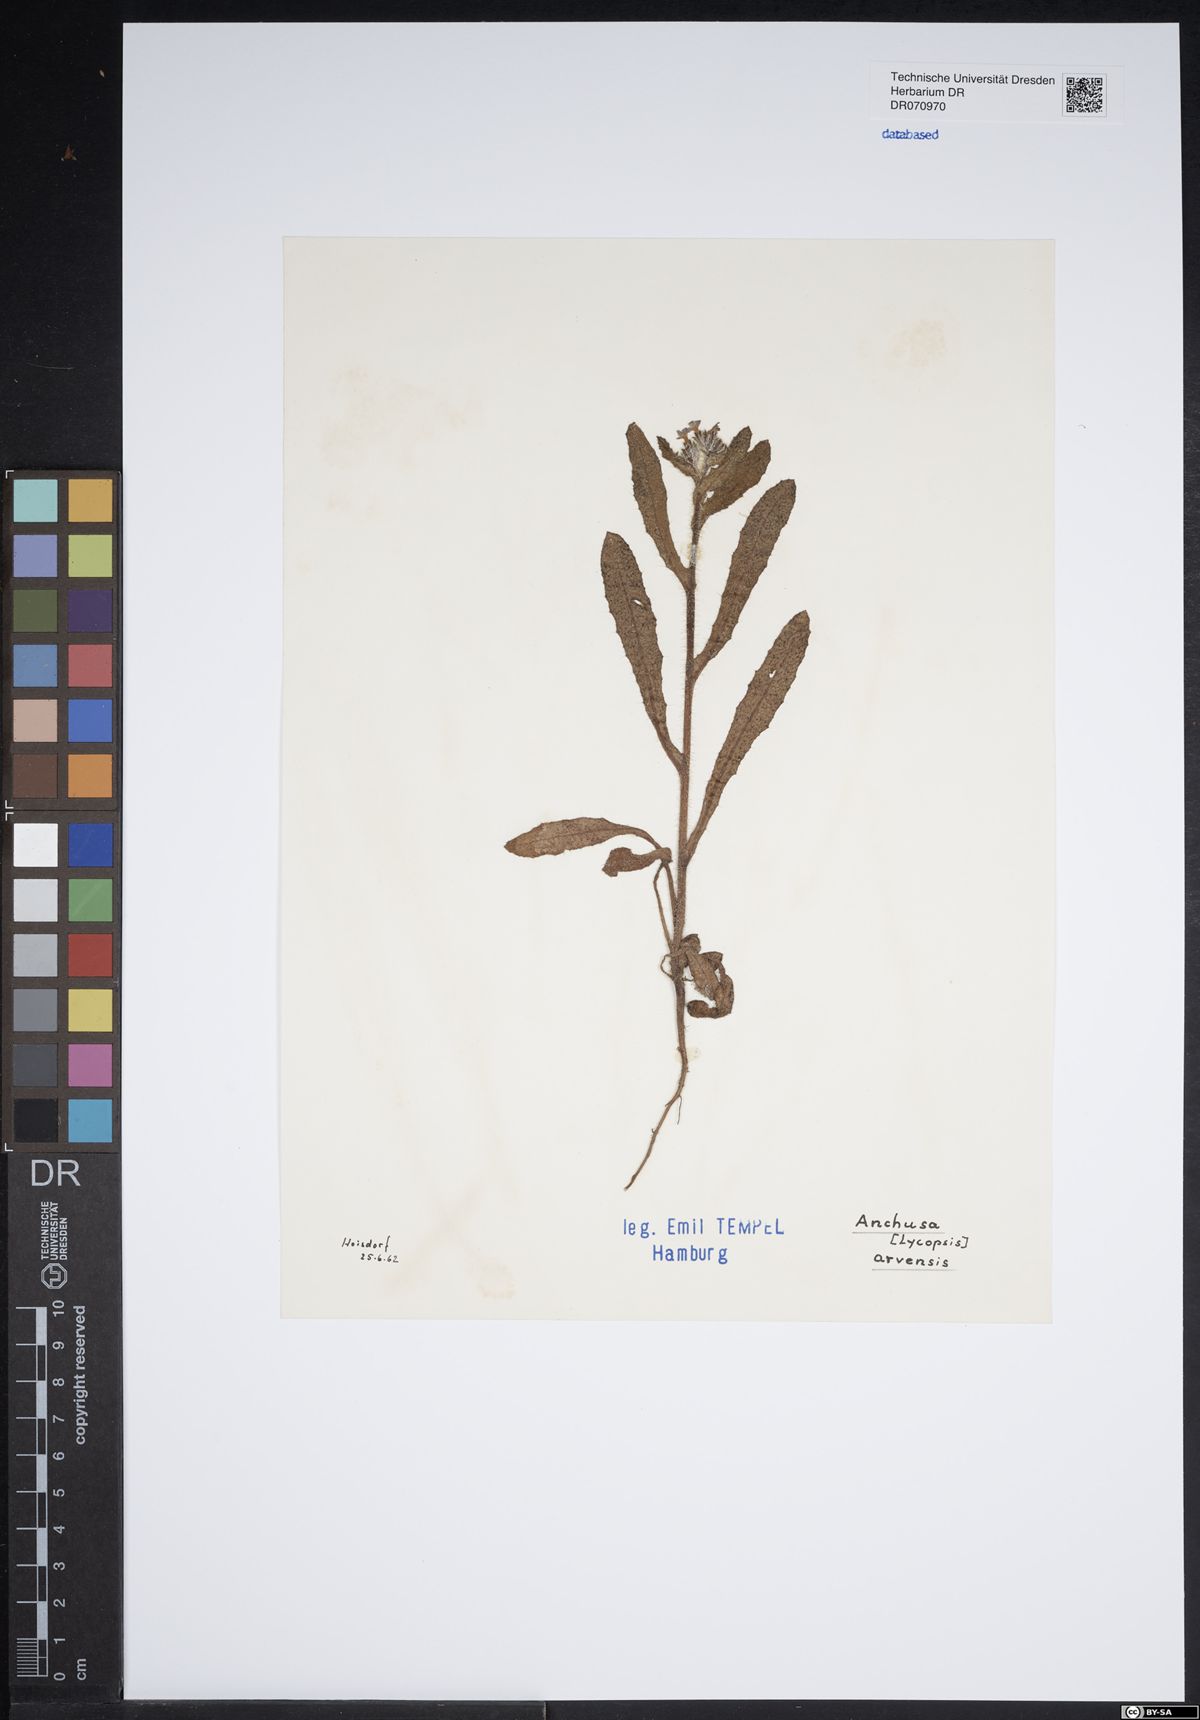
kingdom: Plantae
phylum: Tracheophyta
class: Magnoliopsida
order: Boraginales
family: Boraginaceae
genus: Lycopsis
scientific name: Lycopsis arvensis
